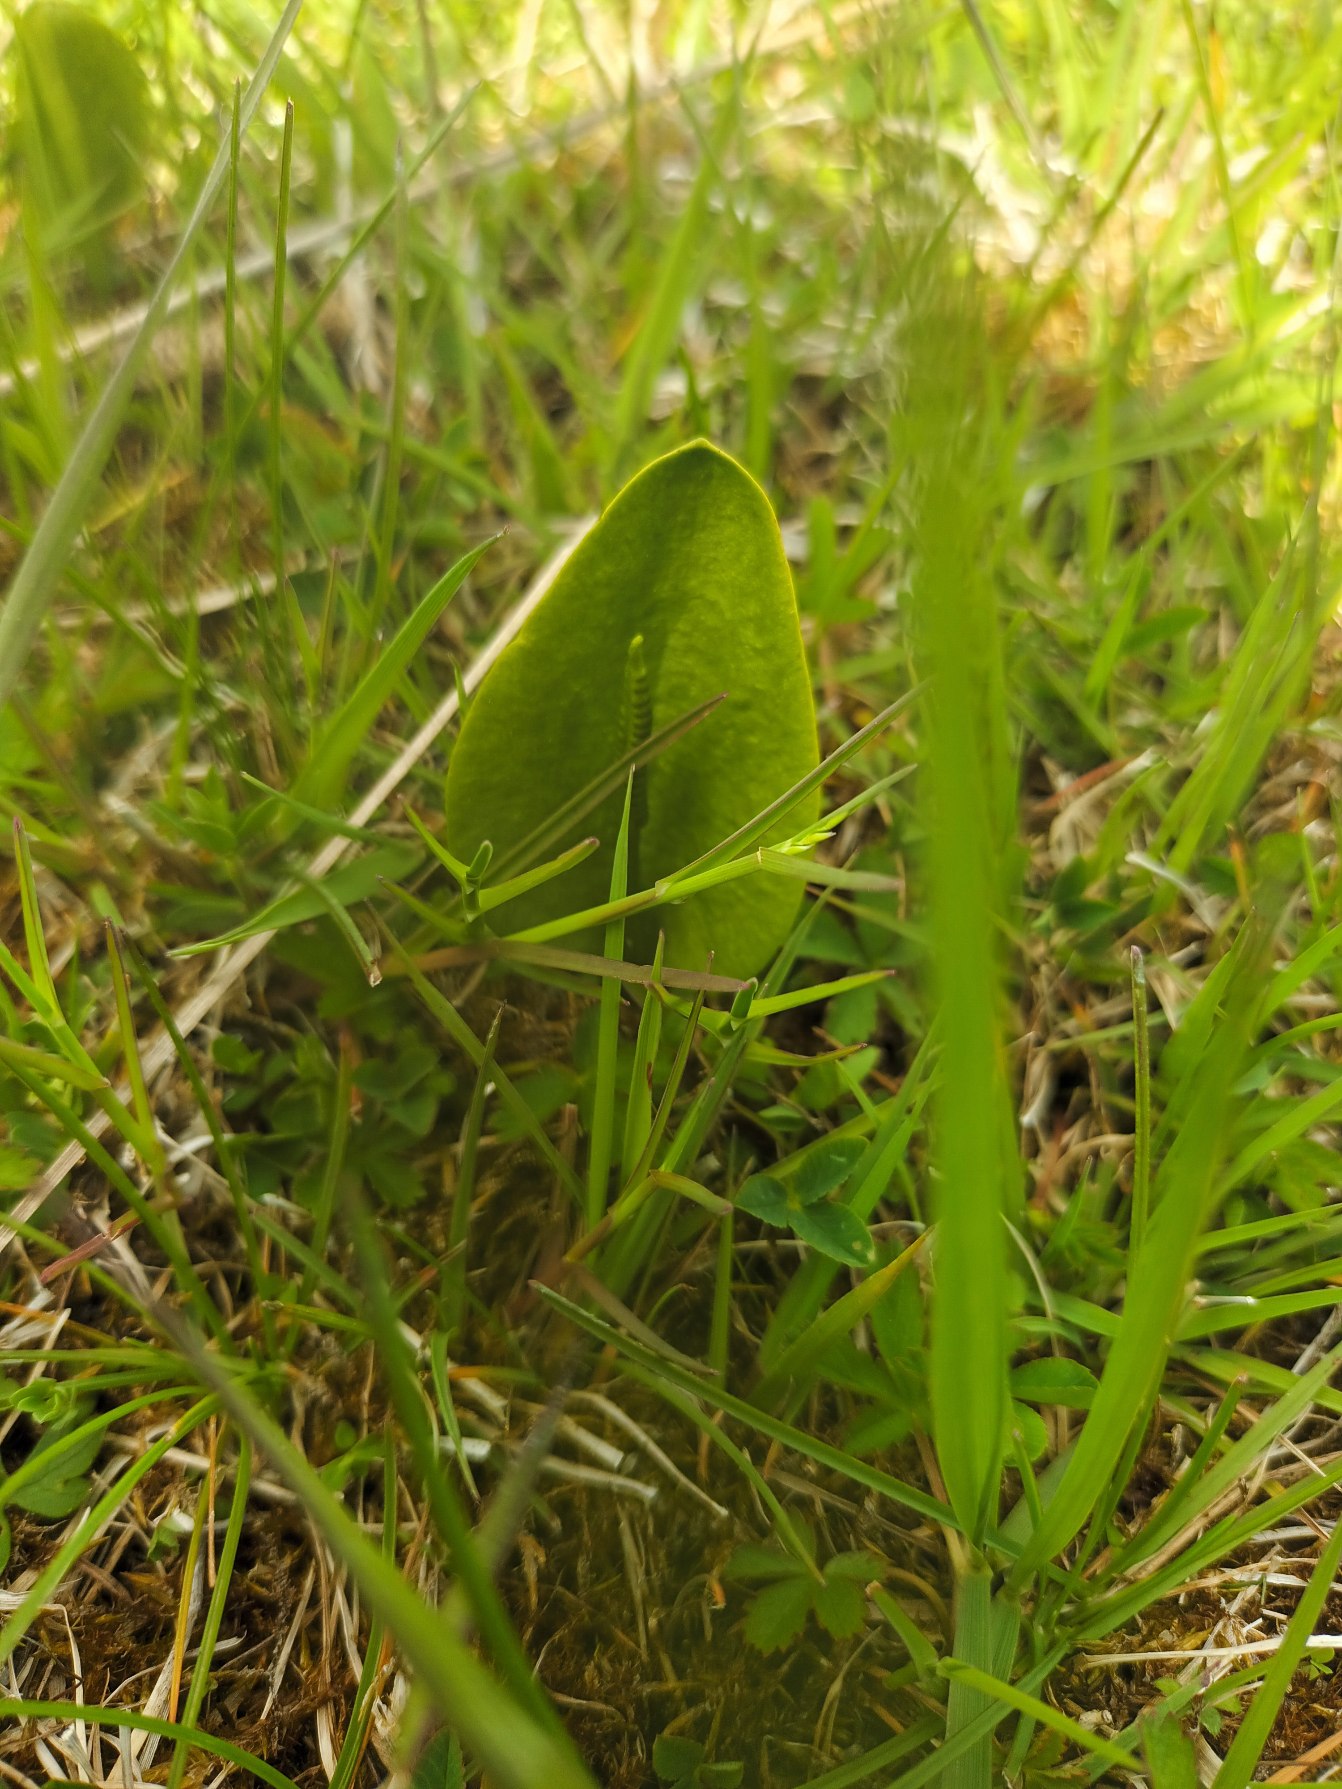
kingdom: Plantae
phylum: Tracheophyta
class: Polypodiopsida
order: Ophioglossales
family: Ophioglossaceae
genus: Ophioglossum
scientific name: Ophioglossum vulgatum
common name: Slangetunge
